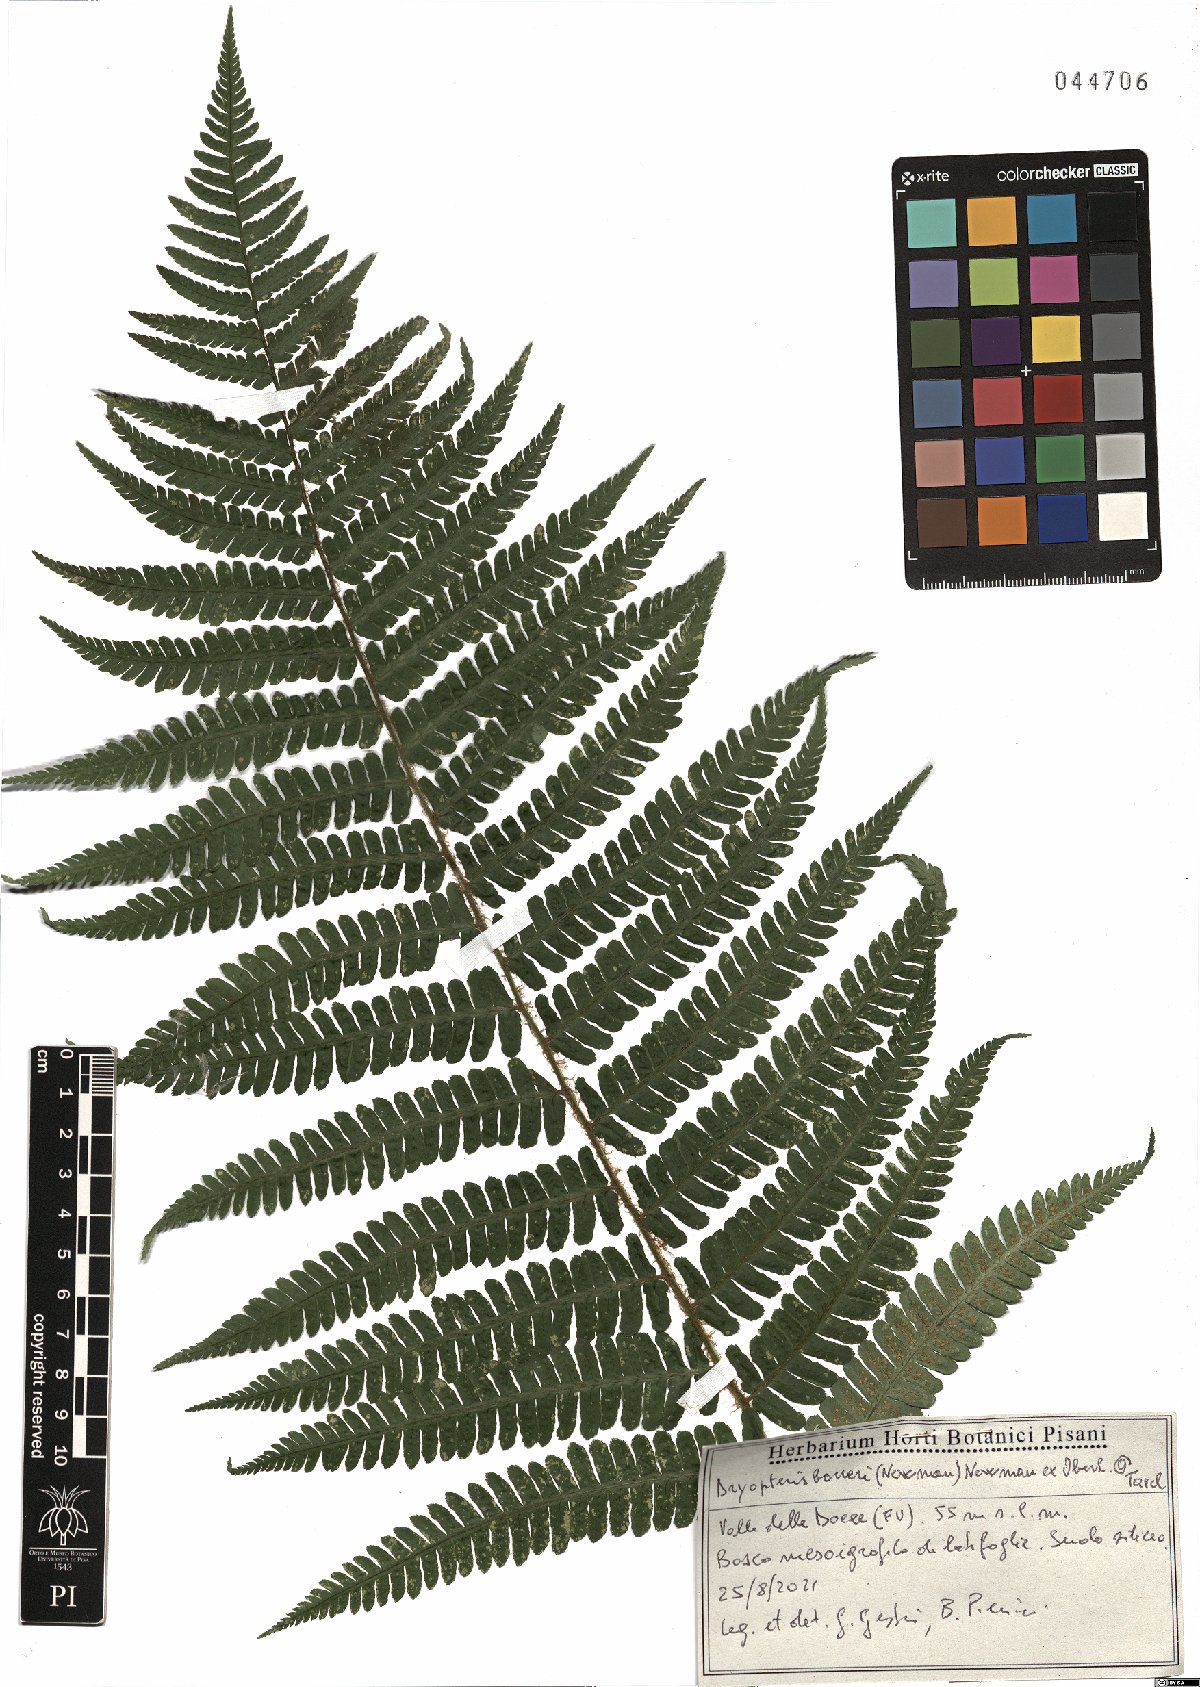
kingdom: Plantae
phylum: Tracheophyta
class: Polypodiopsida
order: Polypodiales
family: Dryopteridaceae
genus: Dryopteris
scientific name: Dryopteris borreri
